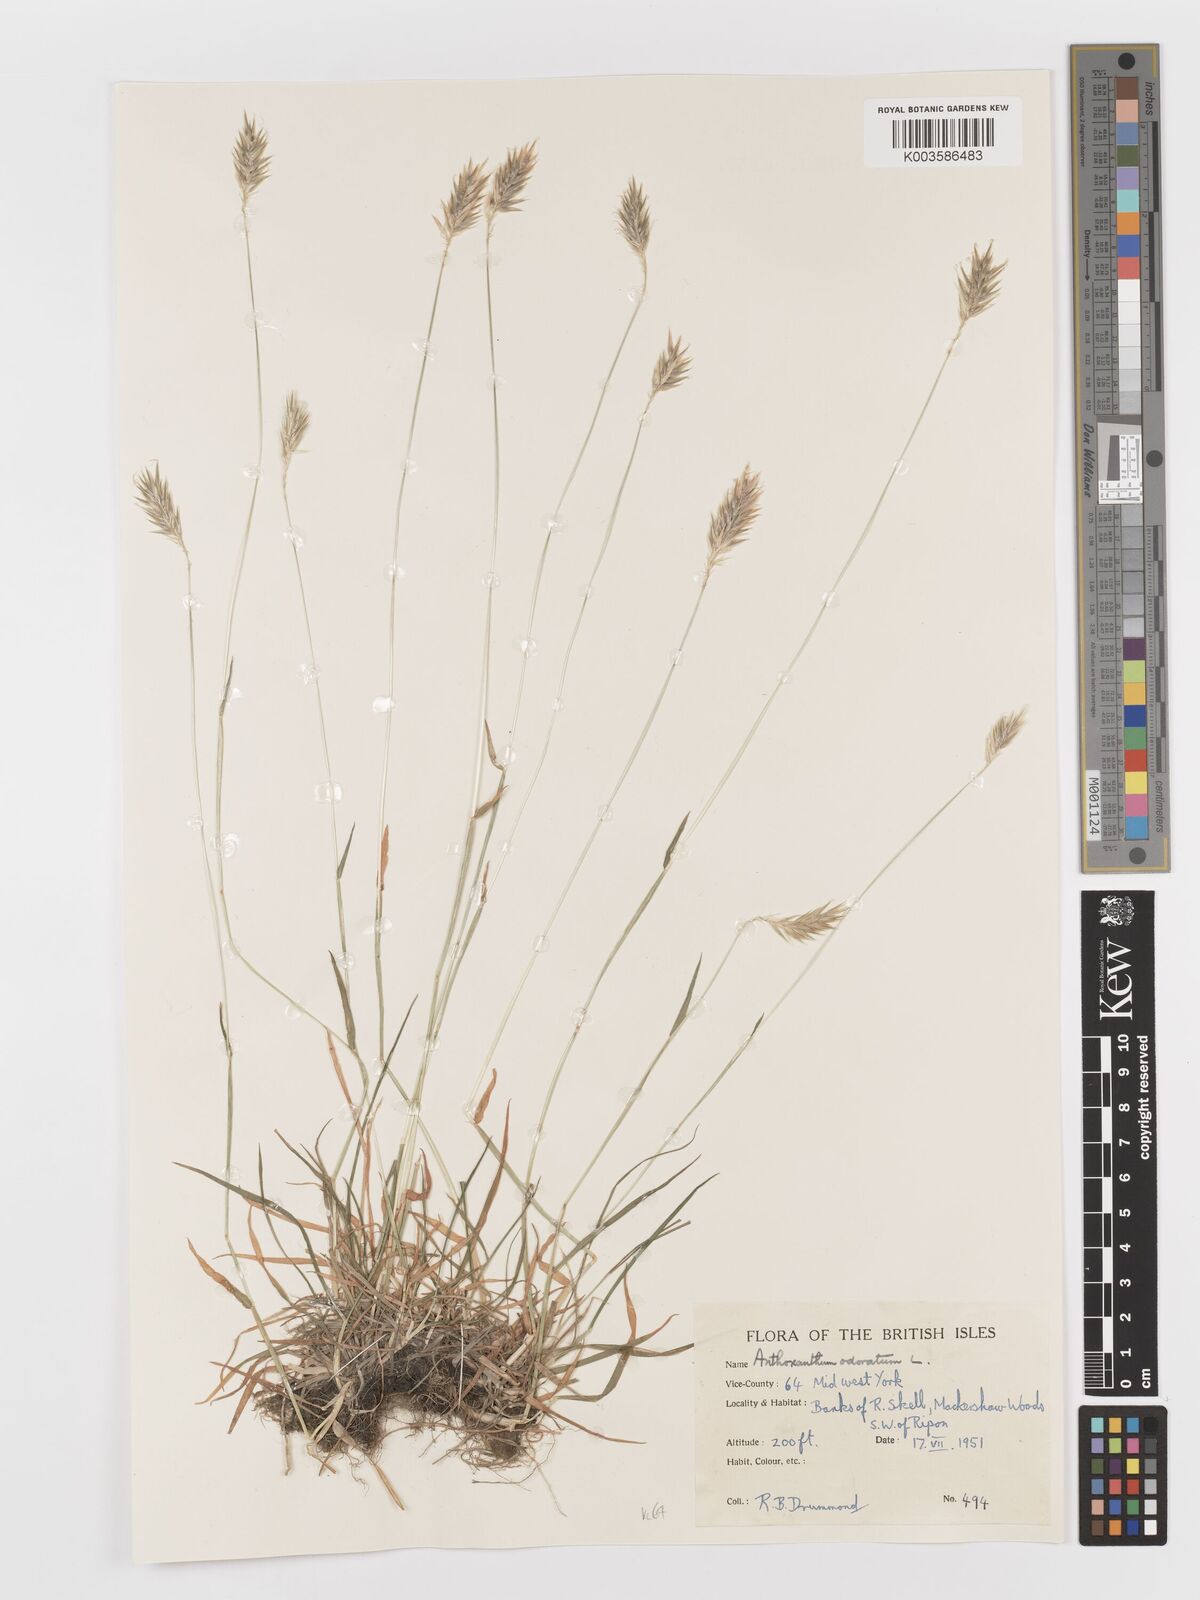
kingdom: Plantae
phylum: Tracheophyta
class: Liliopsida
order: Poales
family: Poaceae
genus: Anthoxanthum
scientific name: Anthoxanthum odoratum
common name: Sweet vernalgrass
